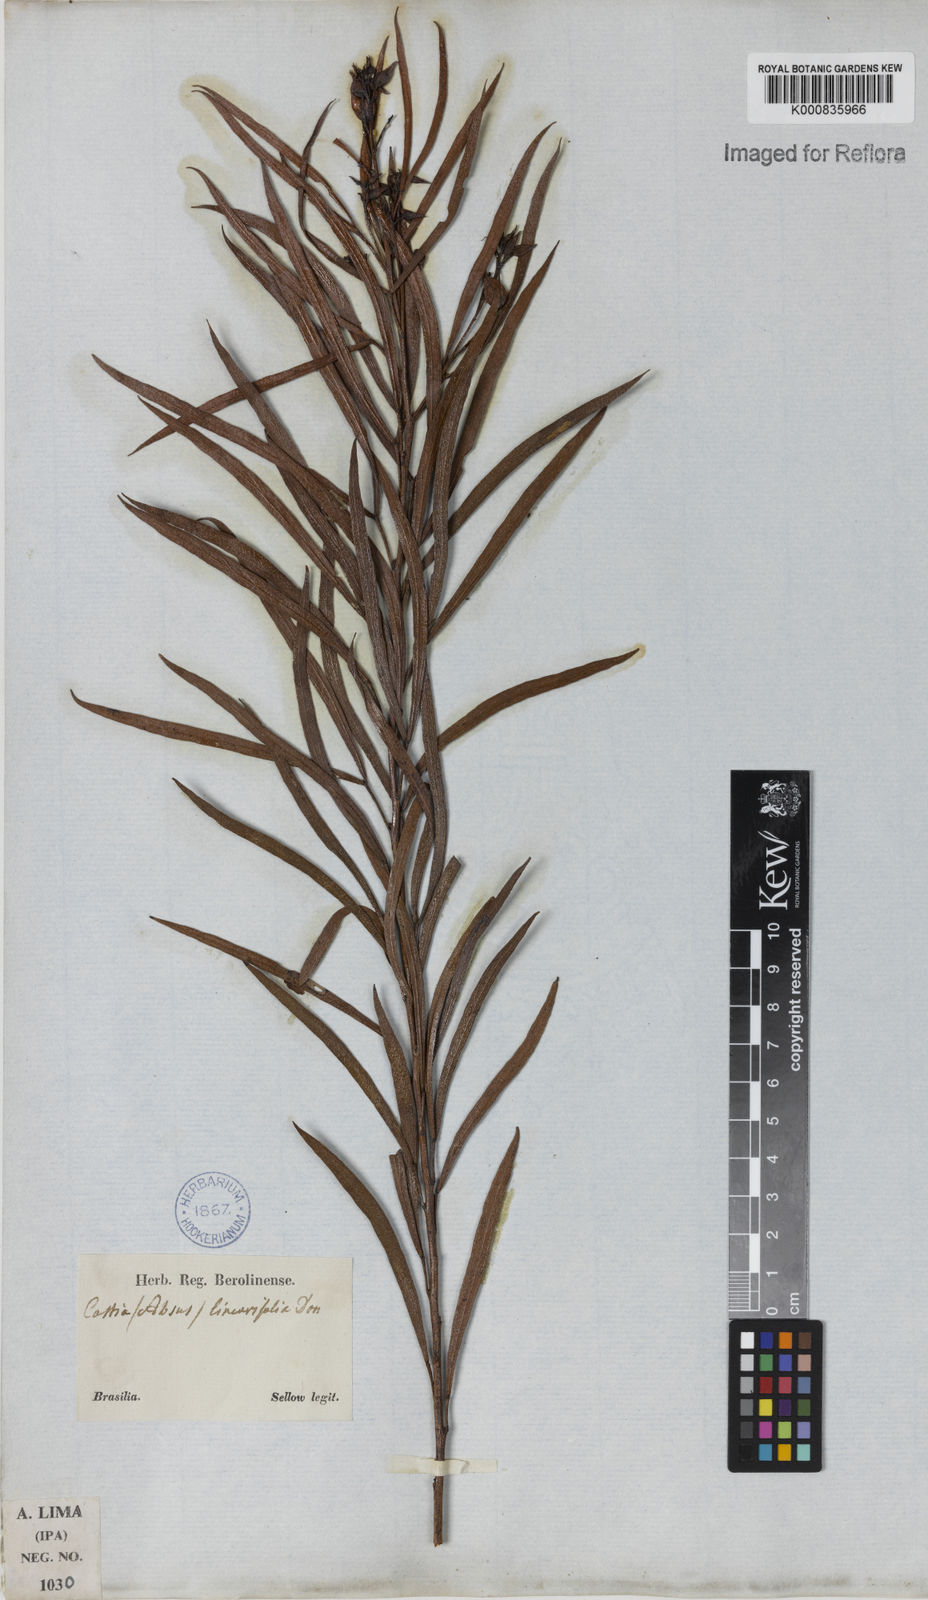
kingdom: Plantae
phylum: Tracheophyta
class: Magnoliopsida
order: Fabales
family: Fabaceae
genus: Chamaecrista
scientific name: Chamaecrista linearifolia
